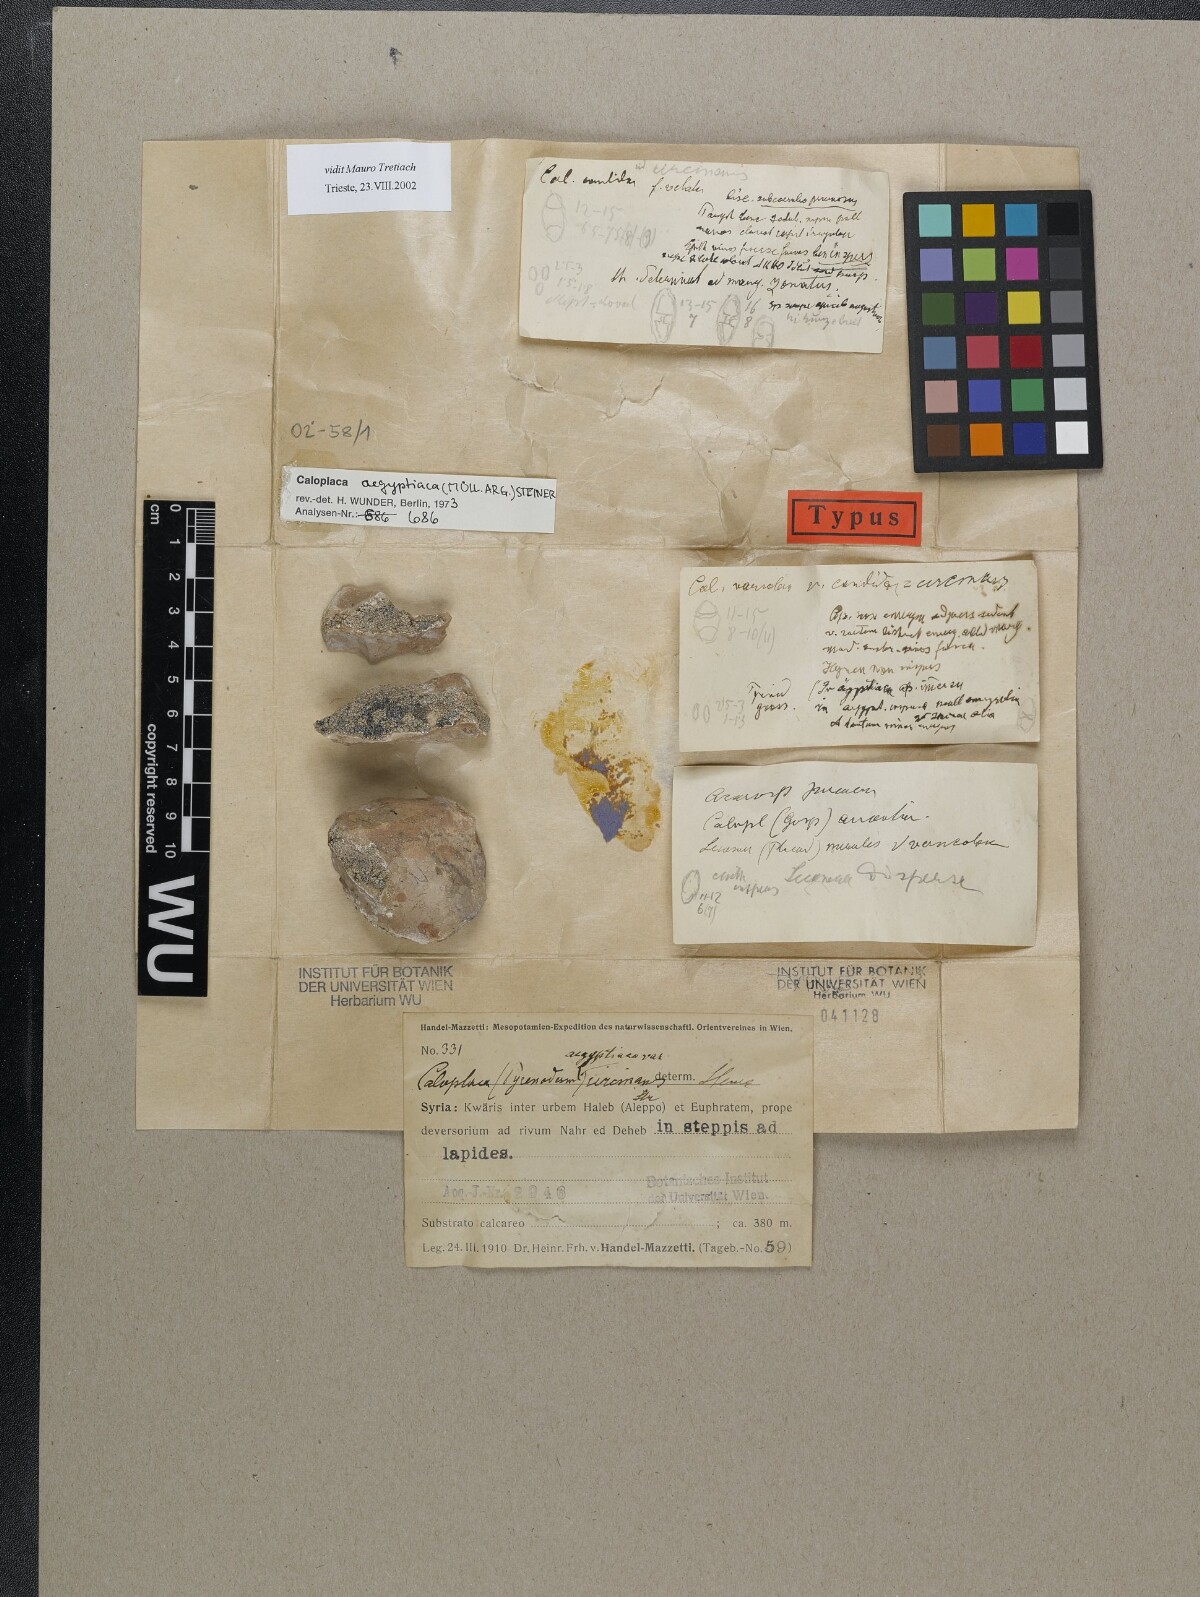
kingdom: Fungi
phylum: Ascomycota
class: Lecanoromycetes
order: Teloschistales
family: Teloschistaceae
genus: Caloplaca
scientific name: Caloplaca
